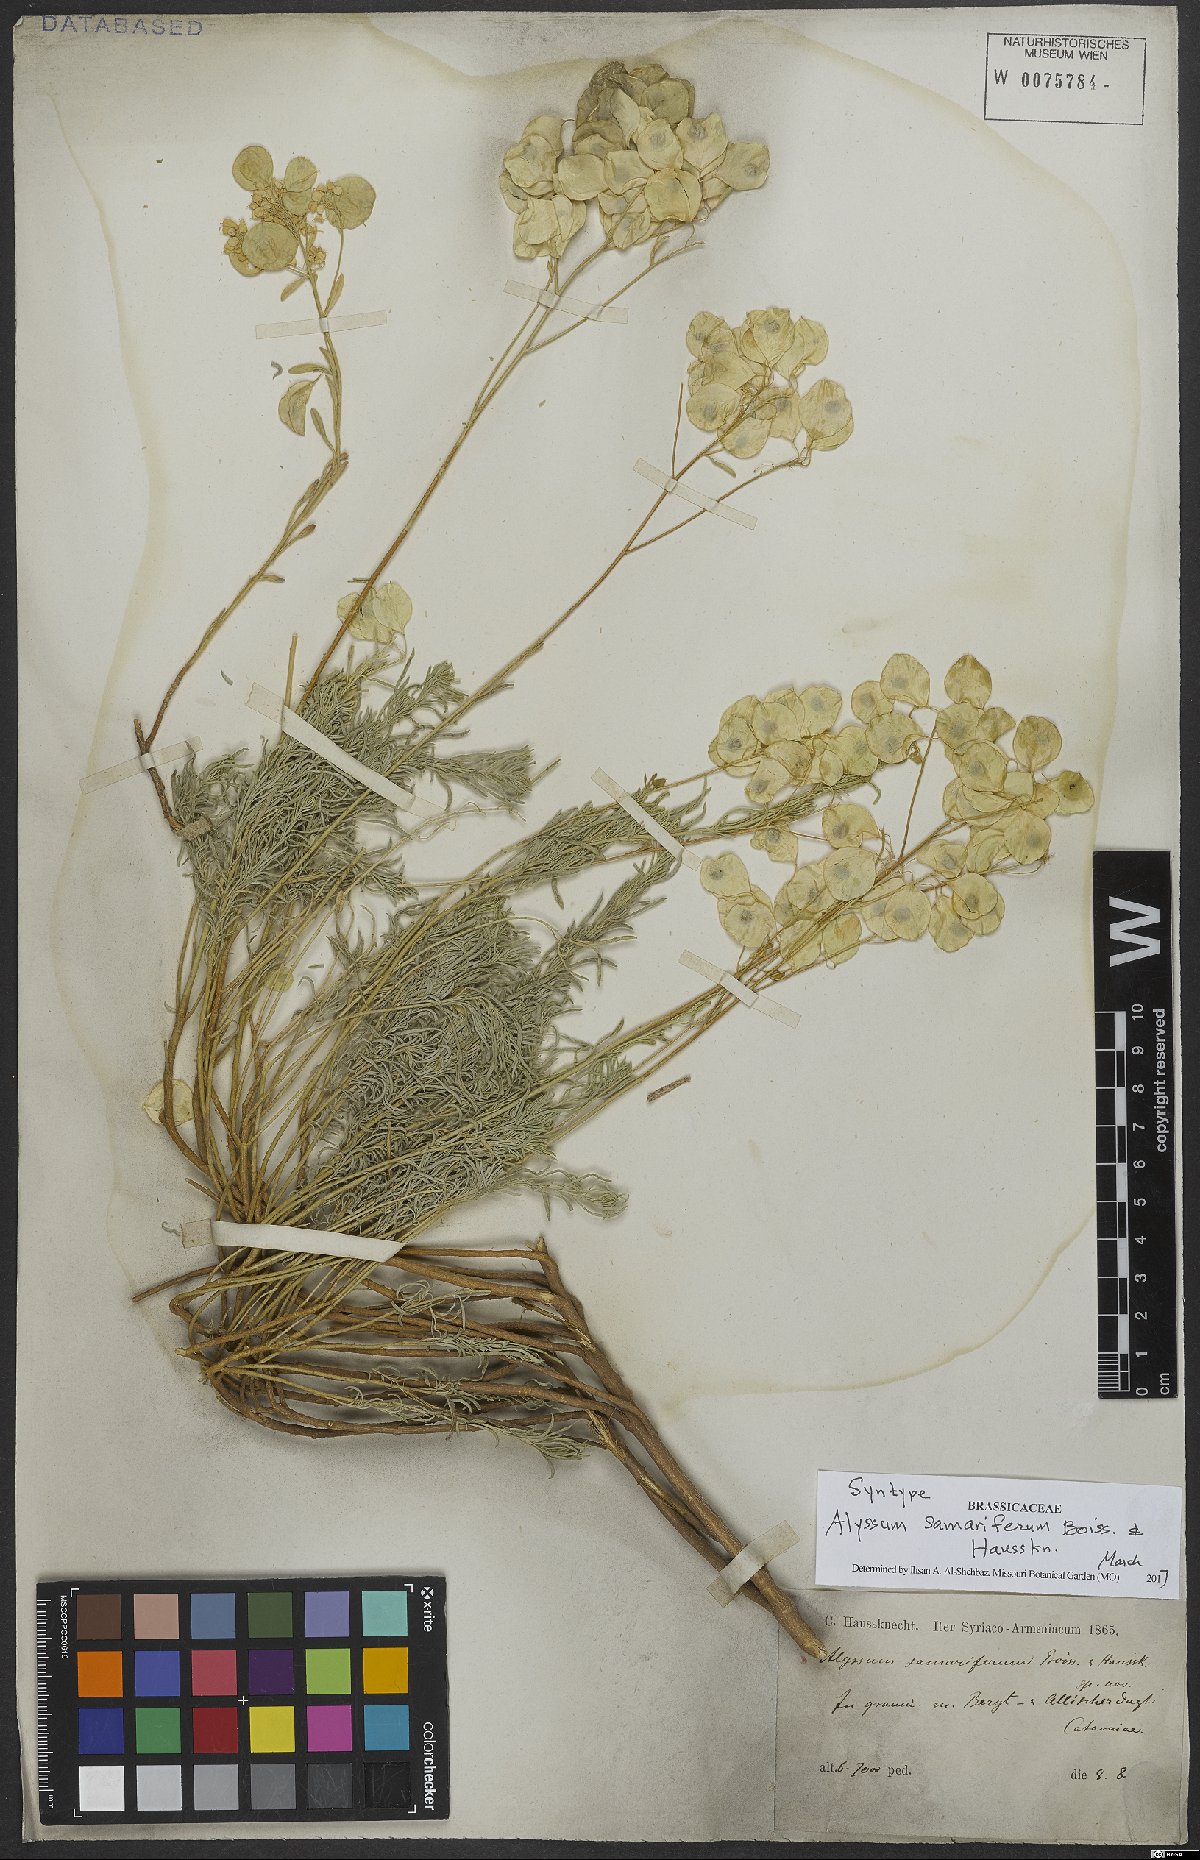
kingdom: Plantae
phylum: Tracheophyta
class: Magnoliopsida
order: Brassicales
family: Brassicaceae
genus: Odontarrhena
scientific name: Odontarrhena samarifera
